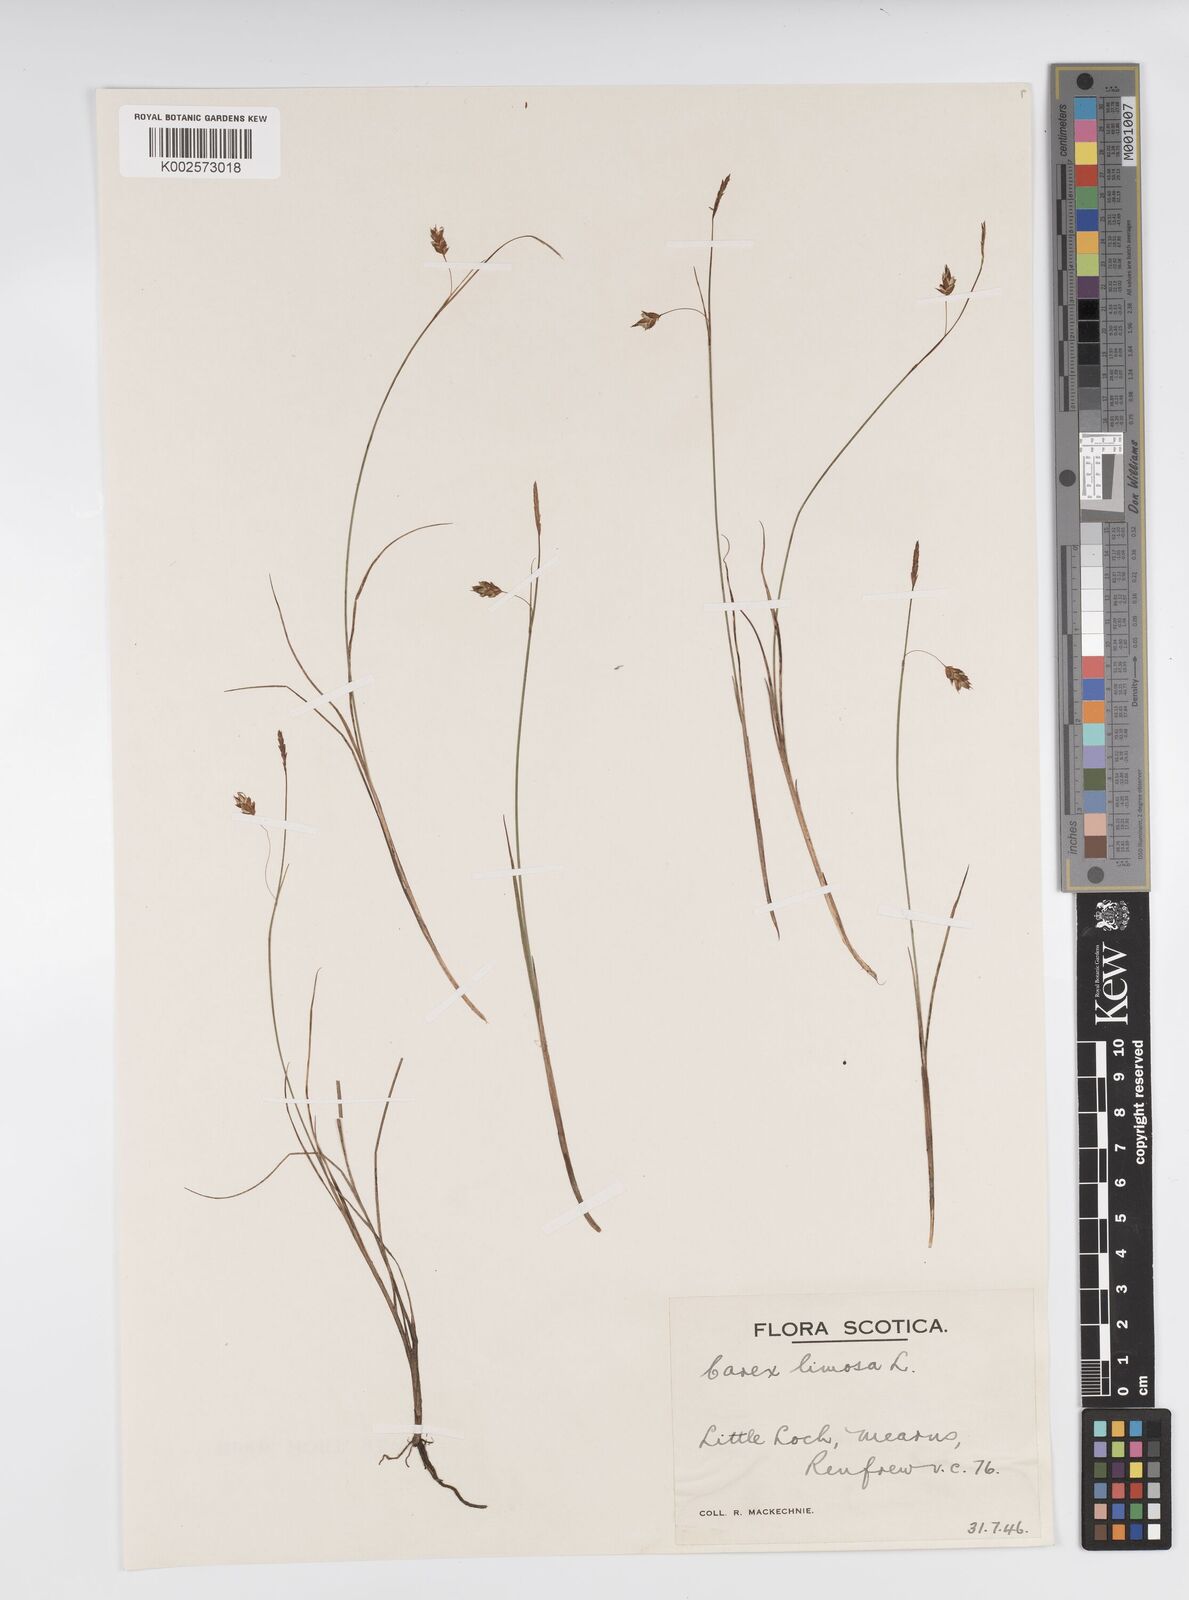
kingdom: Plantae
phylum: Tracheophyta
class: Liliopsida
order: Poales
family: Cyperaceae
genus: Carex
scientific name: Carex limosa
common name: Bog sedge
